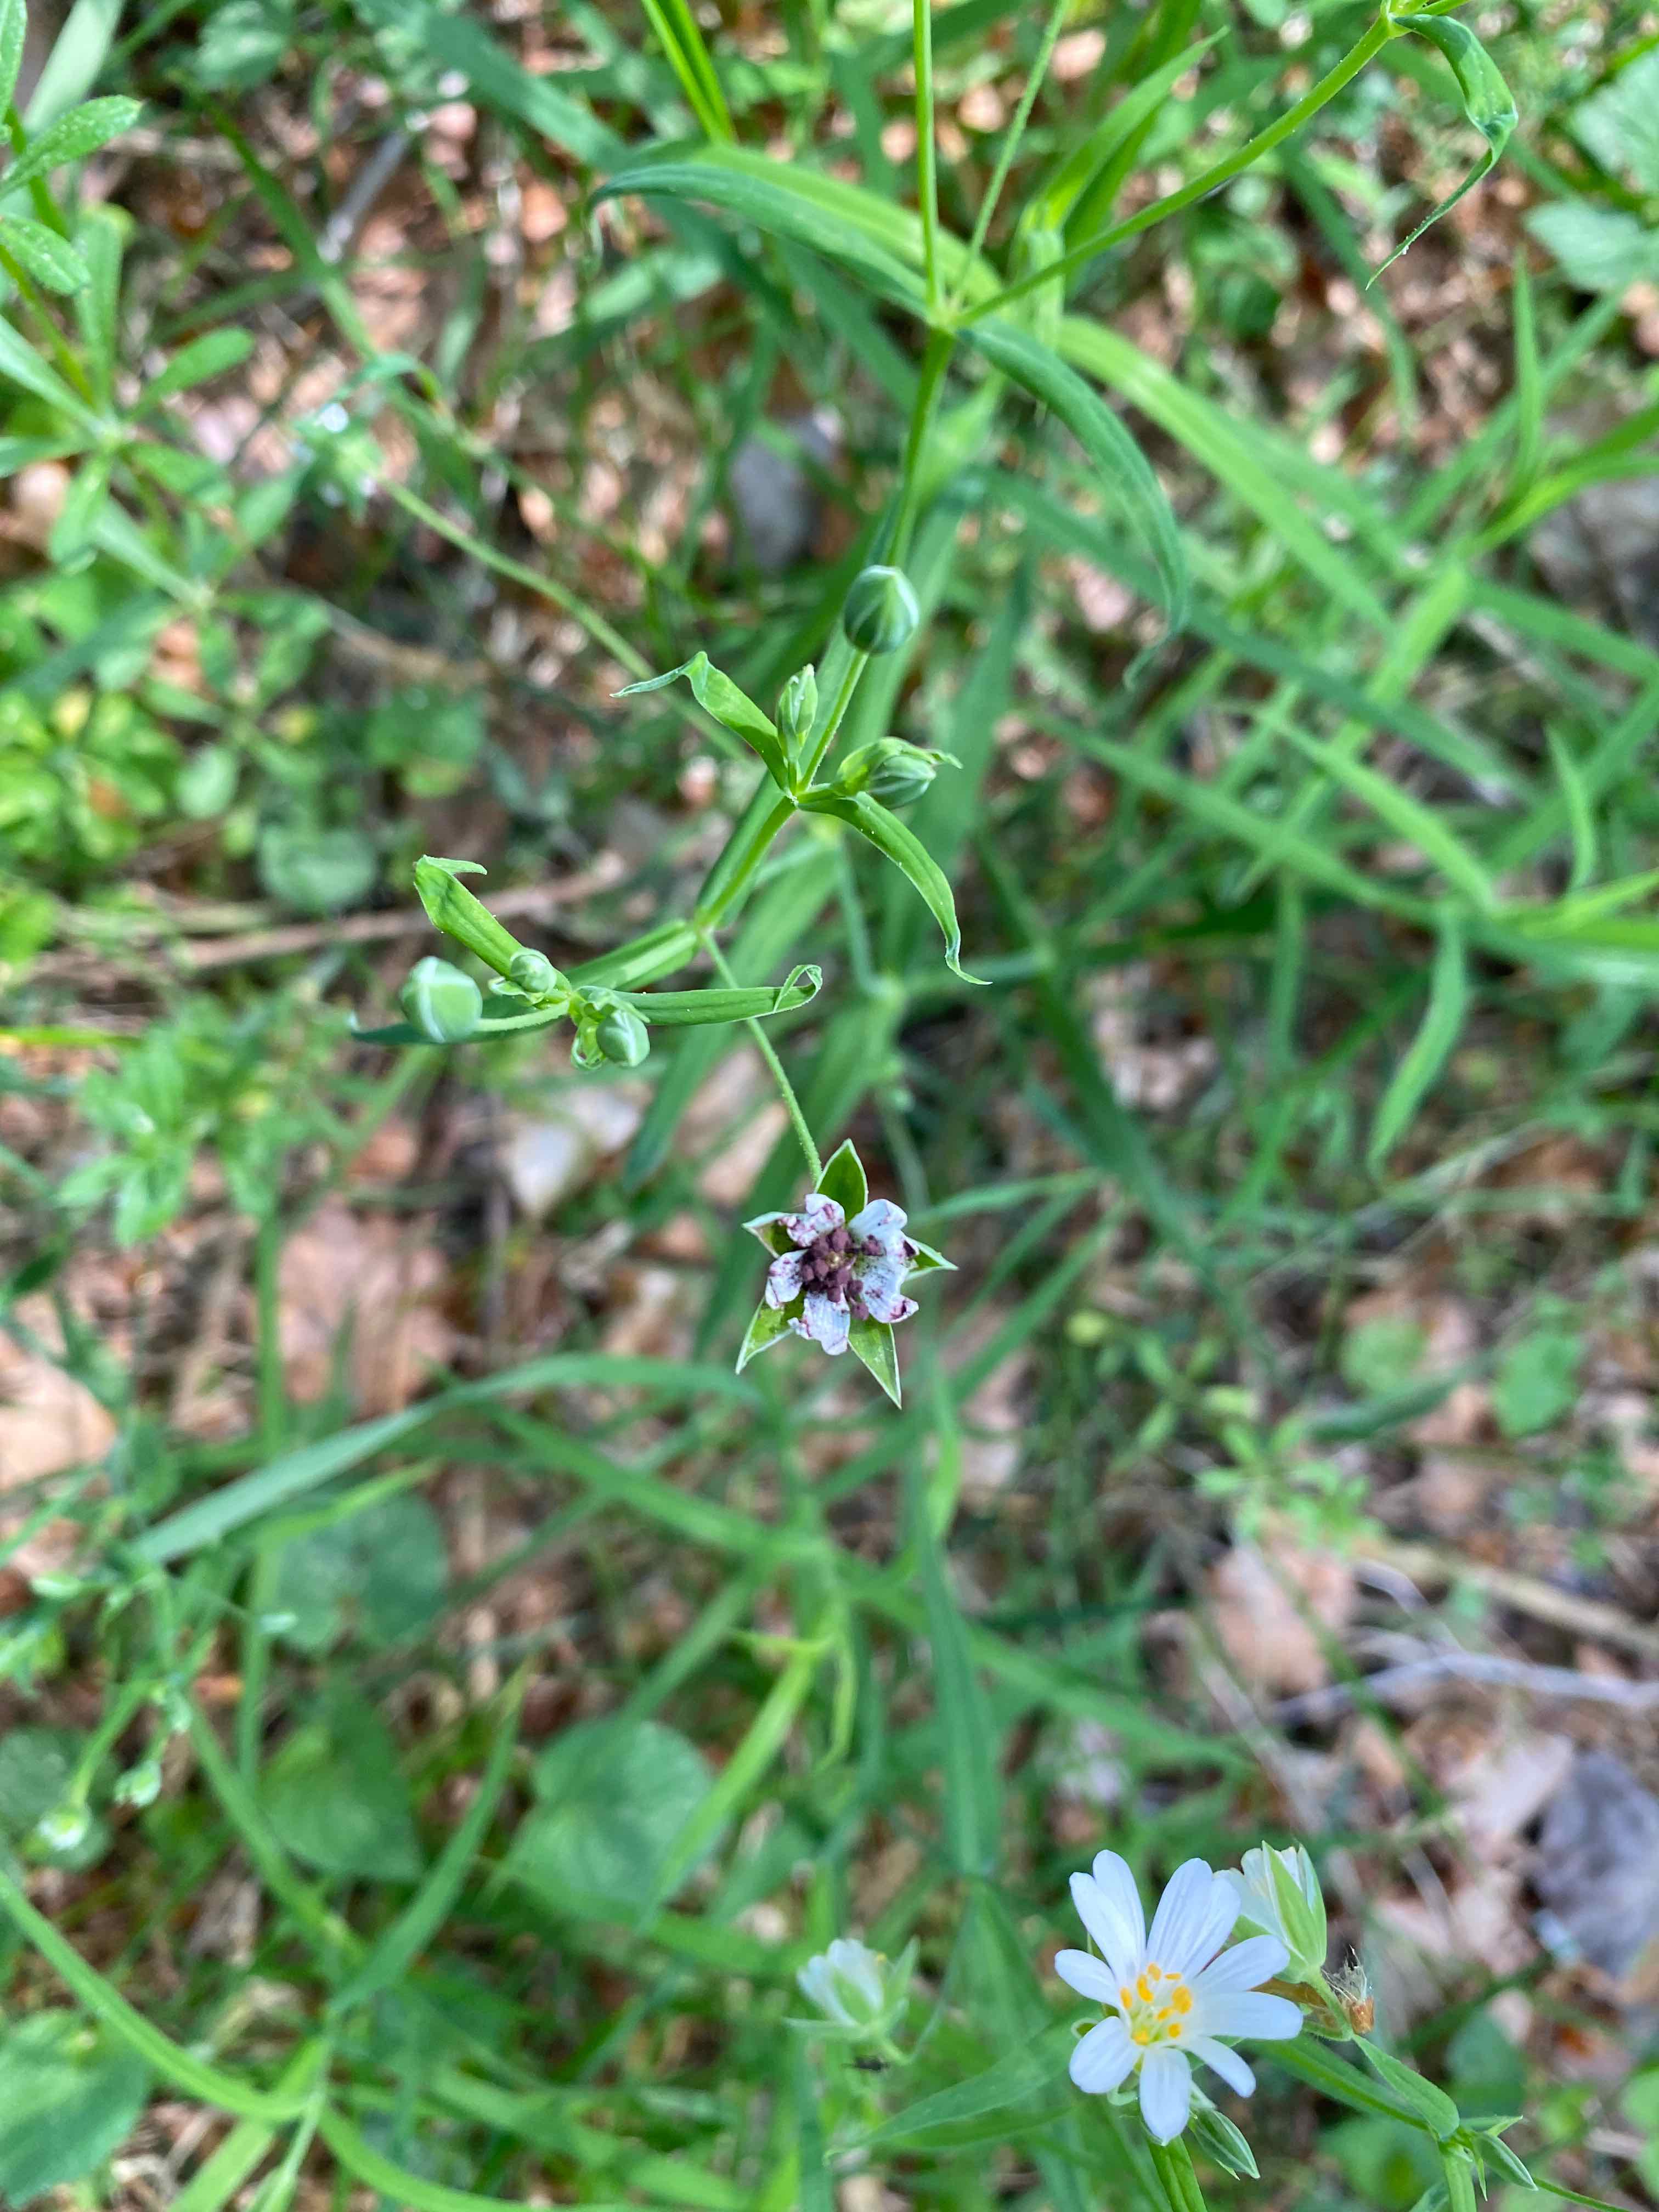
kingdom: Fungi
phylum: Basidiomycota
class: Microbotryomycetes
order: Microbotryales
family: Microbotryaceae
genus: Microbotryum
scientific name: Microbotryum stellariae
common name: fladstjerne-støvbladrust
